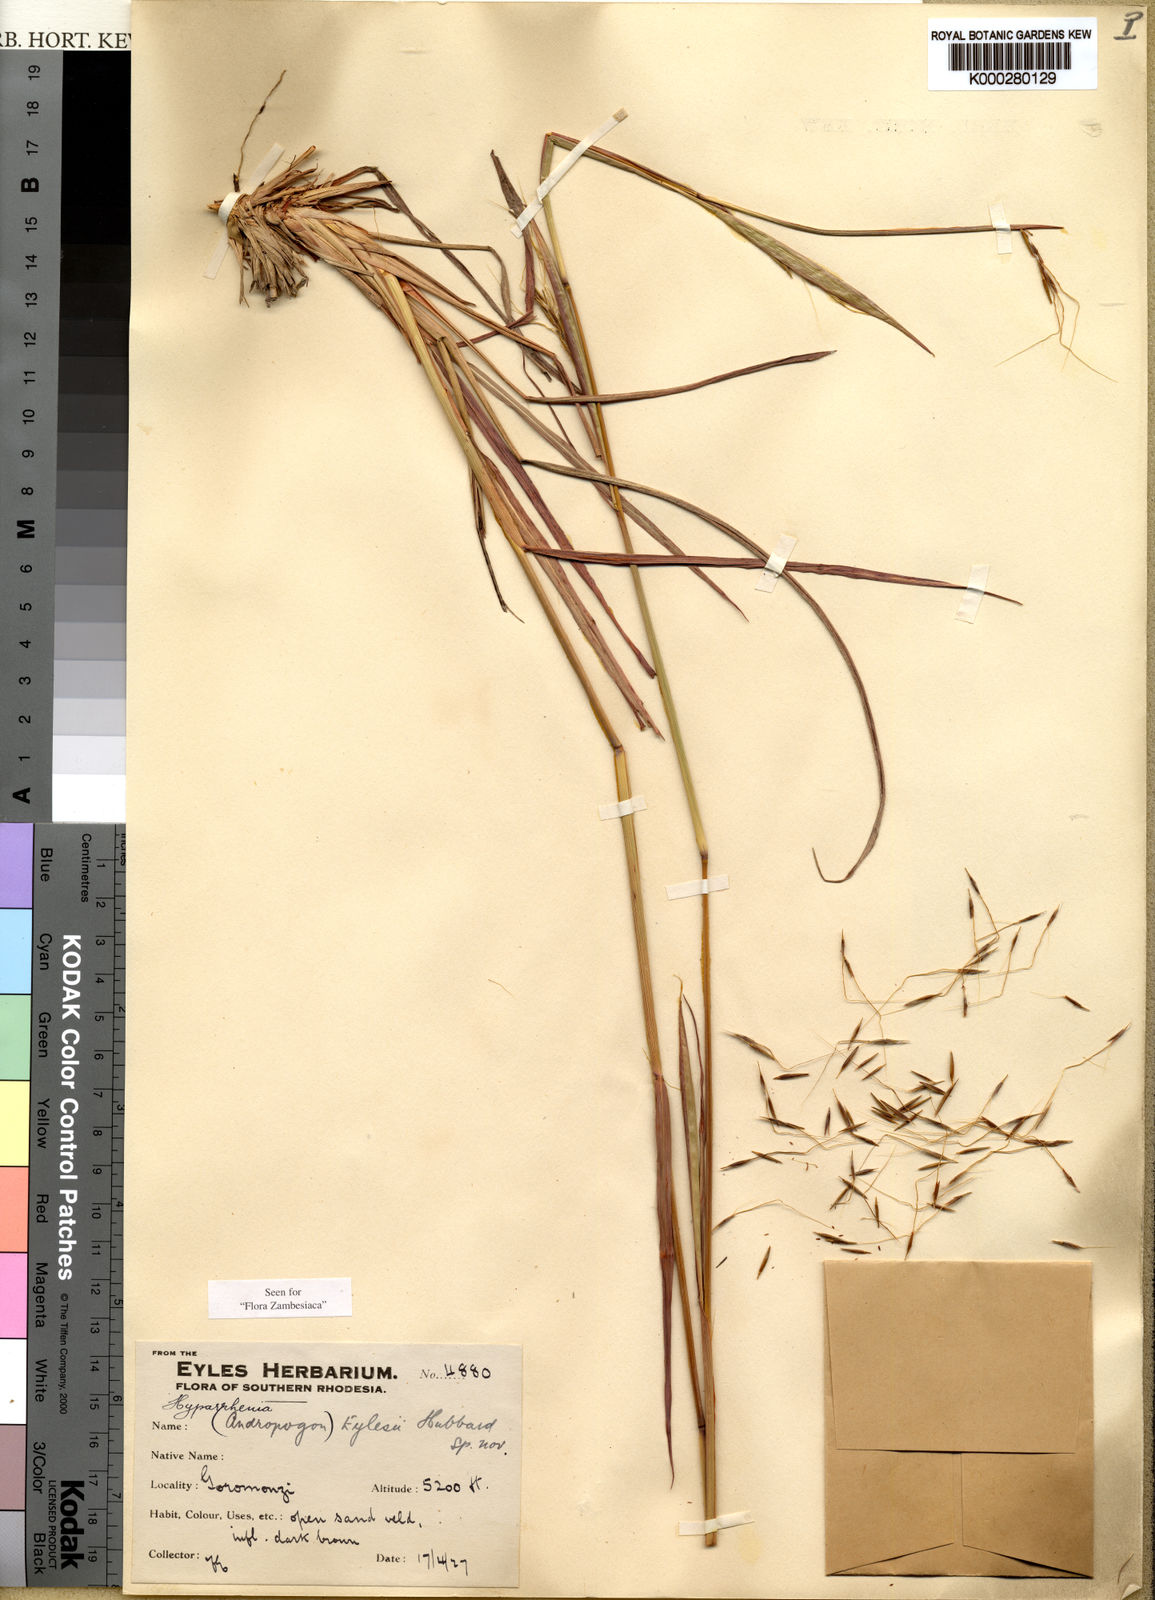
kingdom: Plantae
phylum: Tracheophyta
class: Liliopsida
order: Poales
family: Poaceae
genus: Elymandra
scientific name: Elymandra grallata
